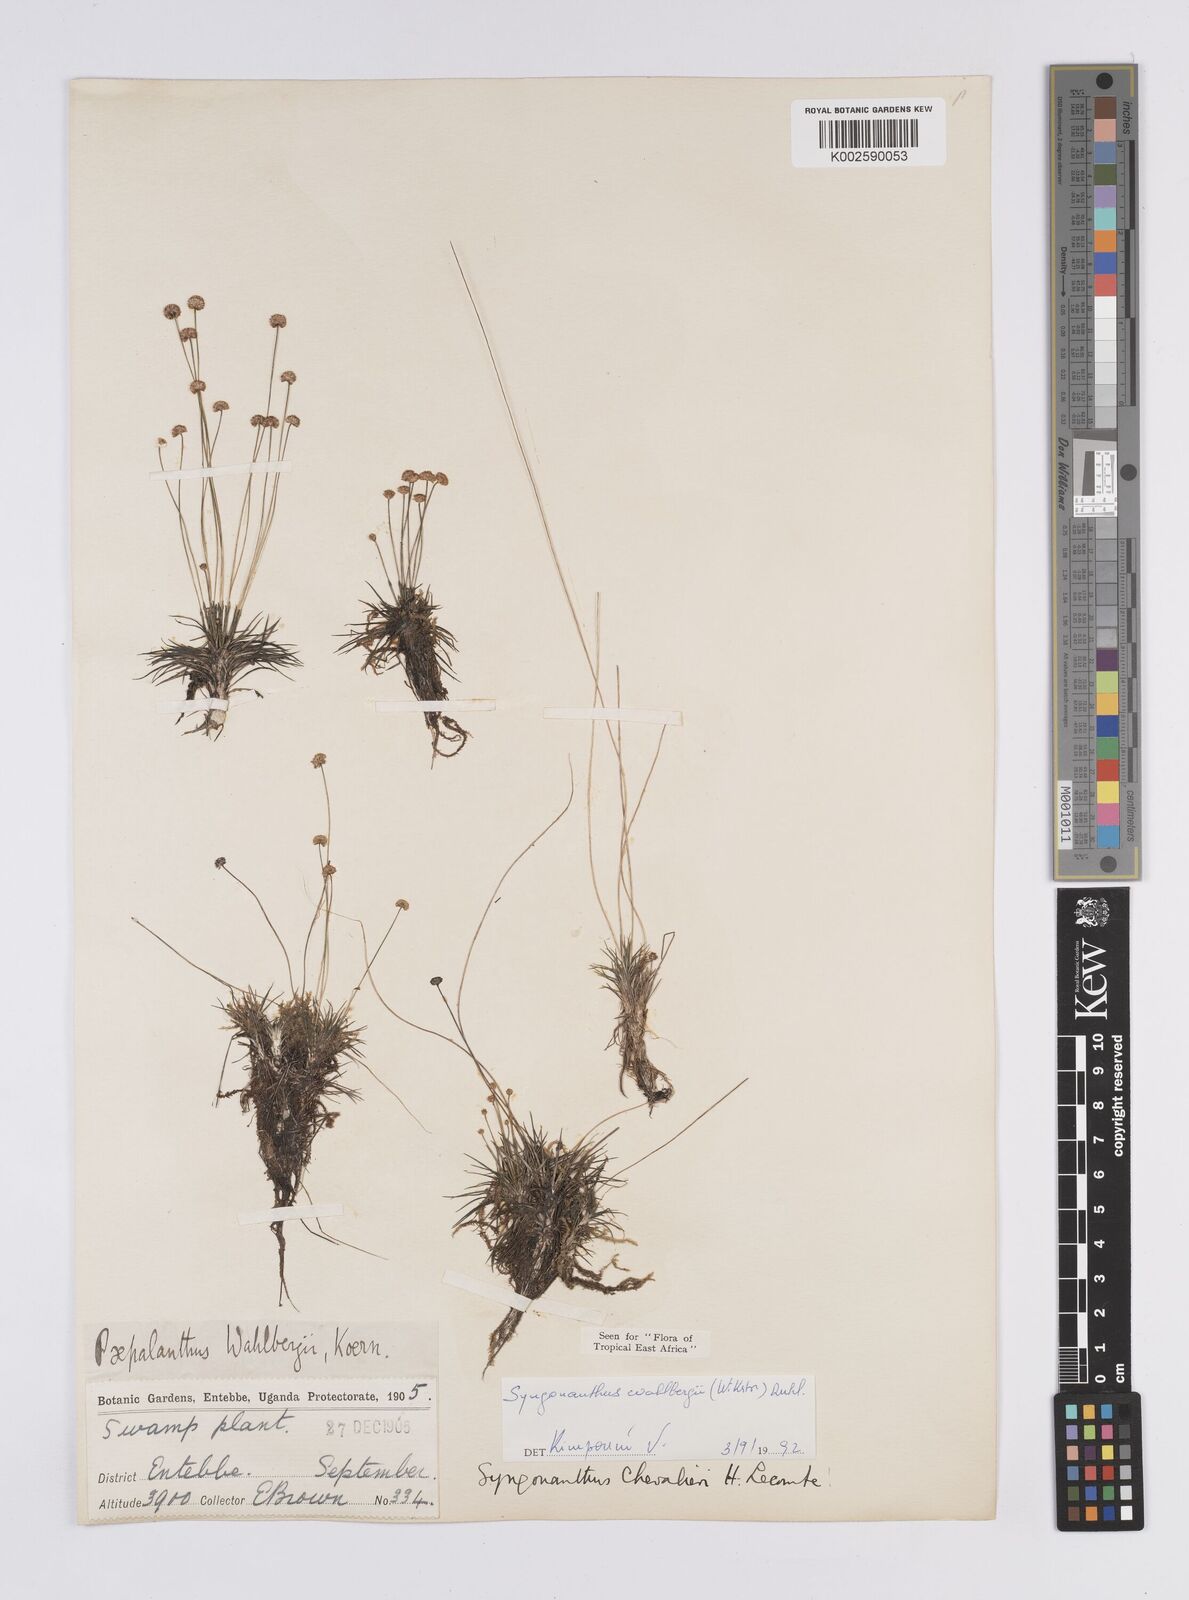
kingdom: Plantae
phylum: Tracheophyta
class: Liliopsida
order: Poales
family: Eriocaulaceae
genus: Syngonanthus
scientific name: Syngonanthus wahlbergii
